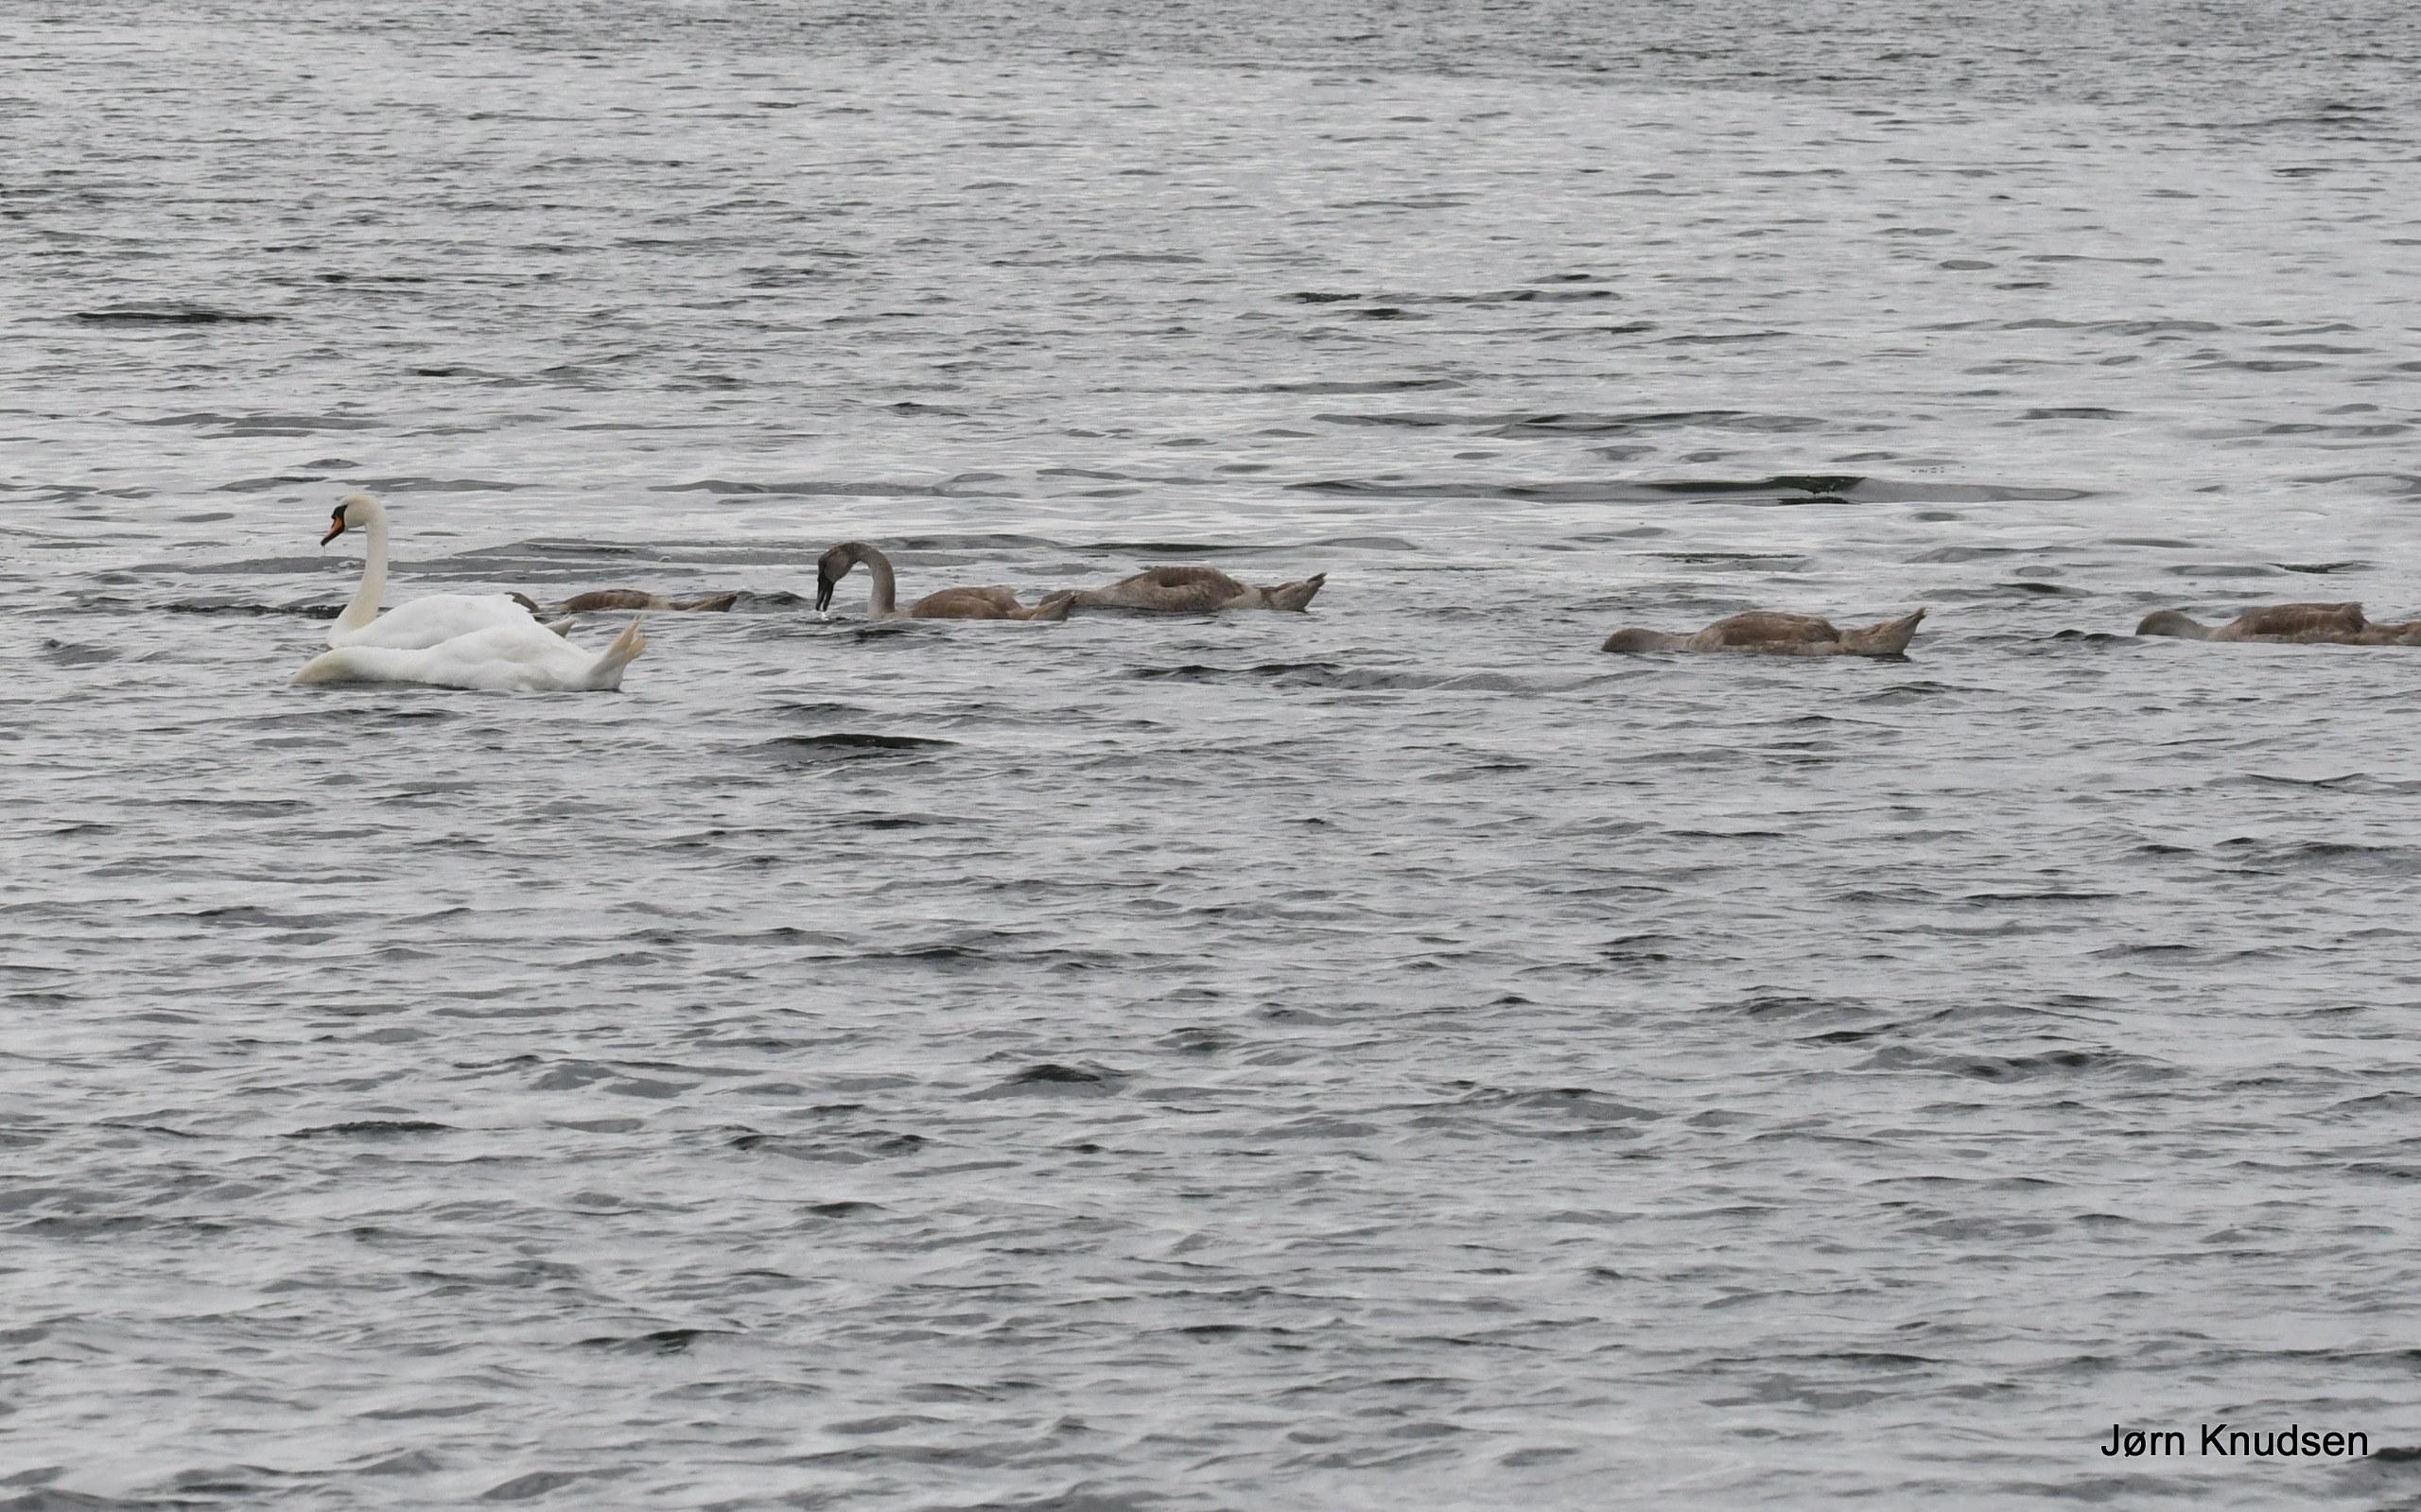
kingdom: Animalia
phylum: Chordata
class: Aves
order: Anseriformes
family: Anatidae
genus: Cygnus
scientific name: Cygnus olor
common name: Knopsvane
